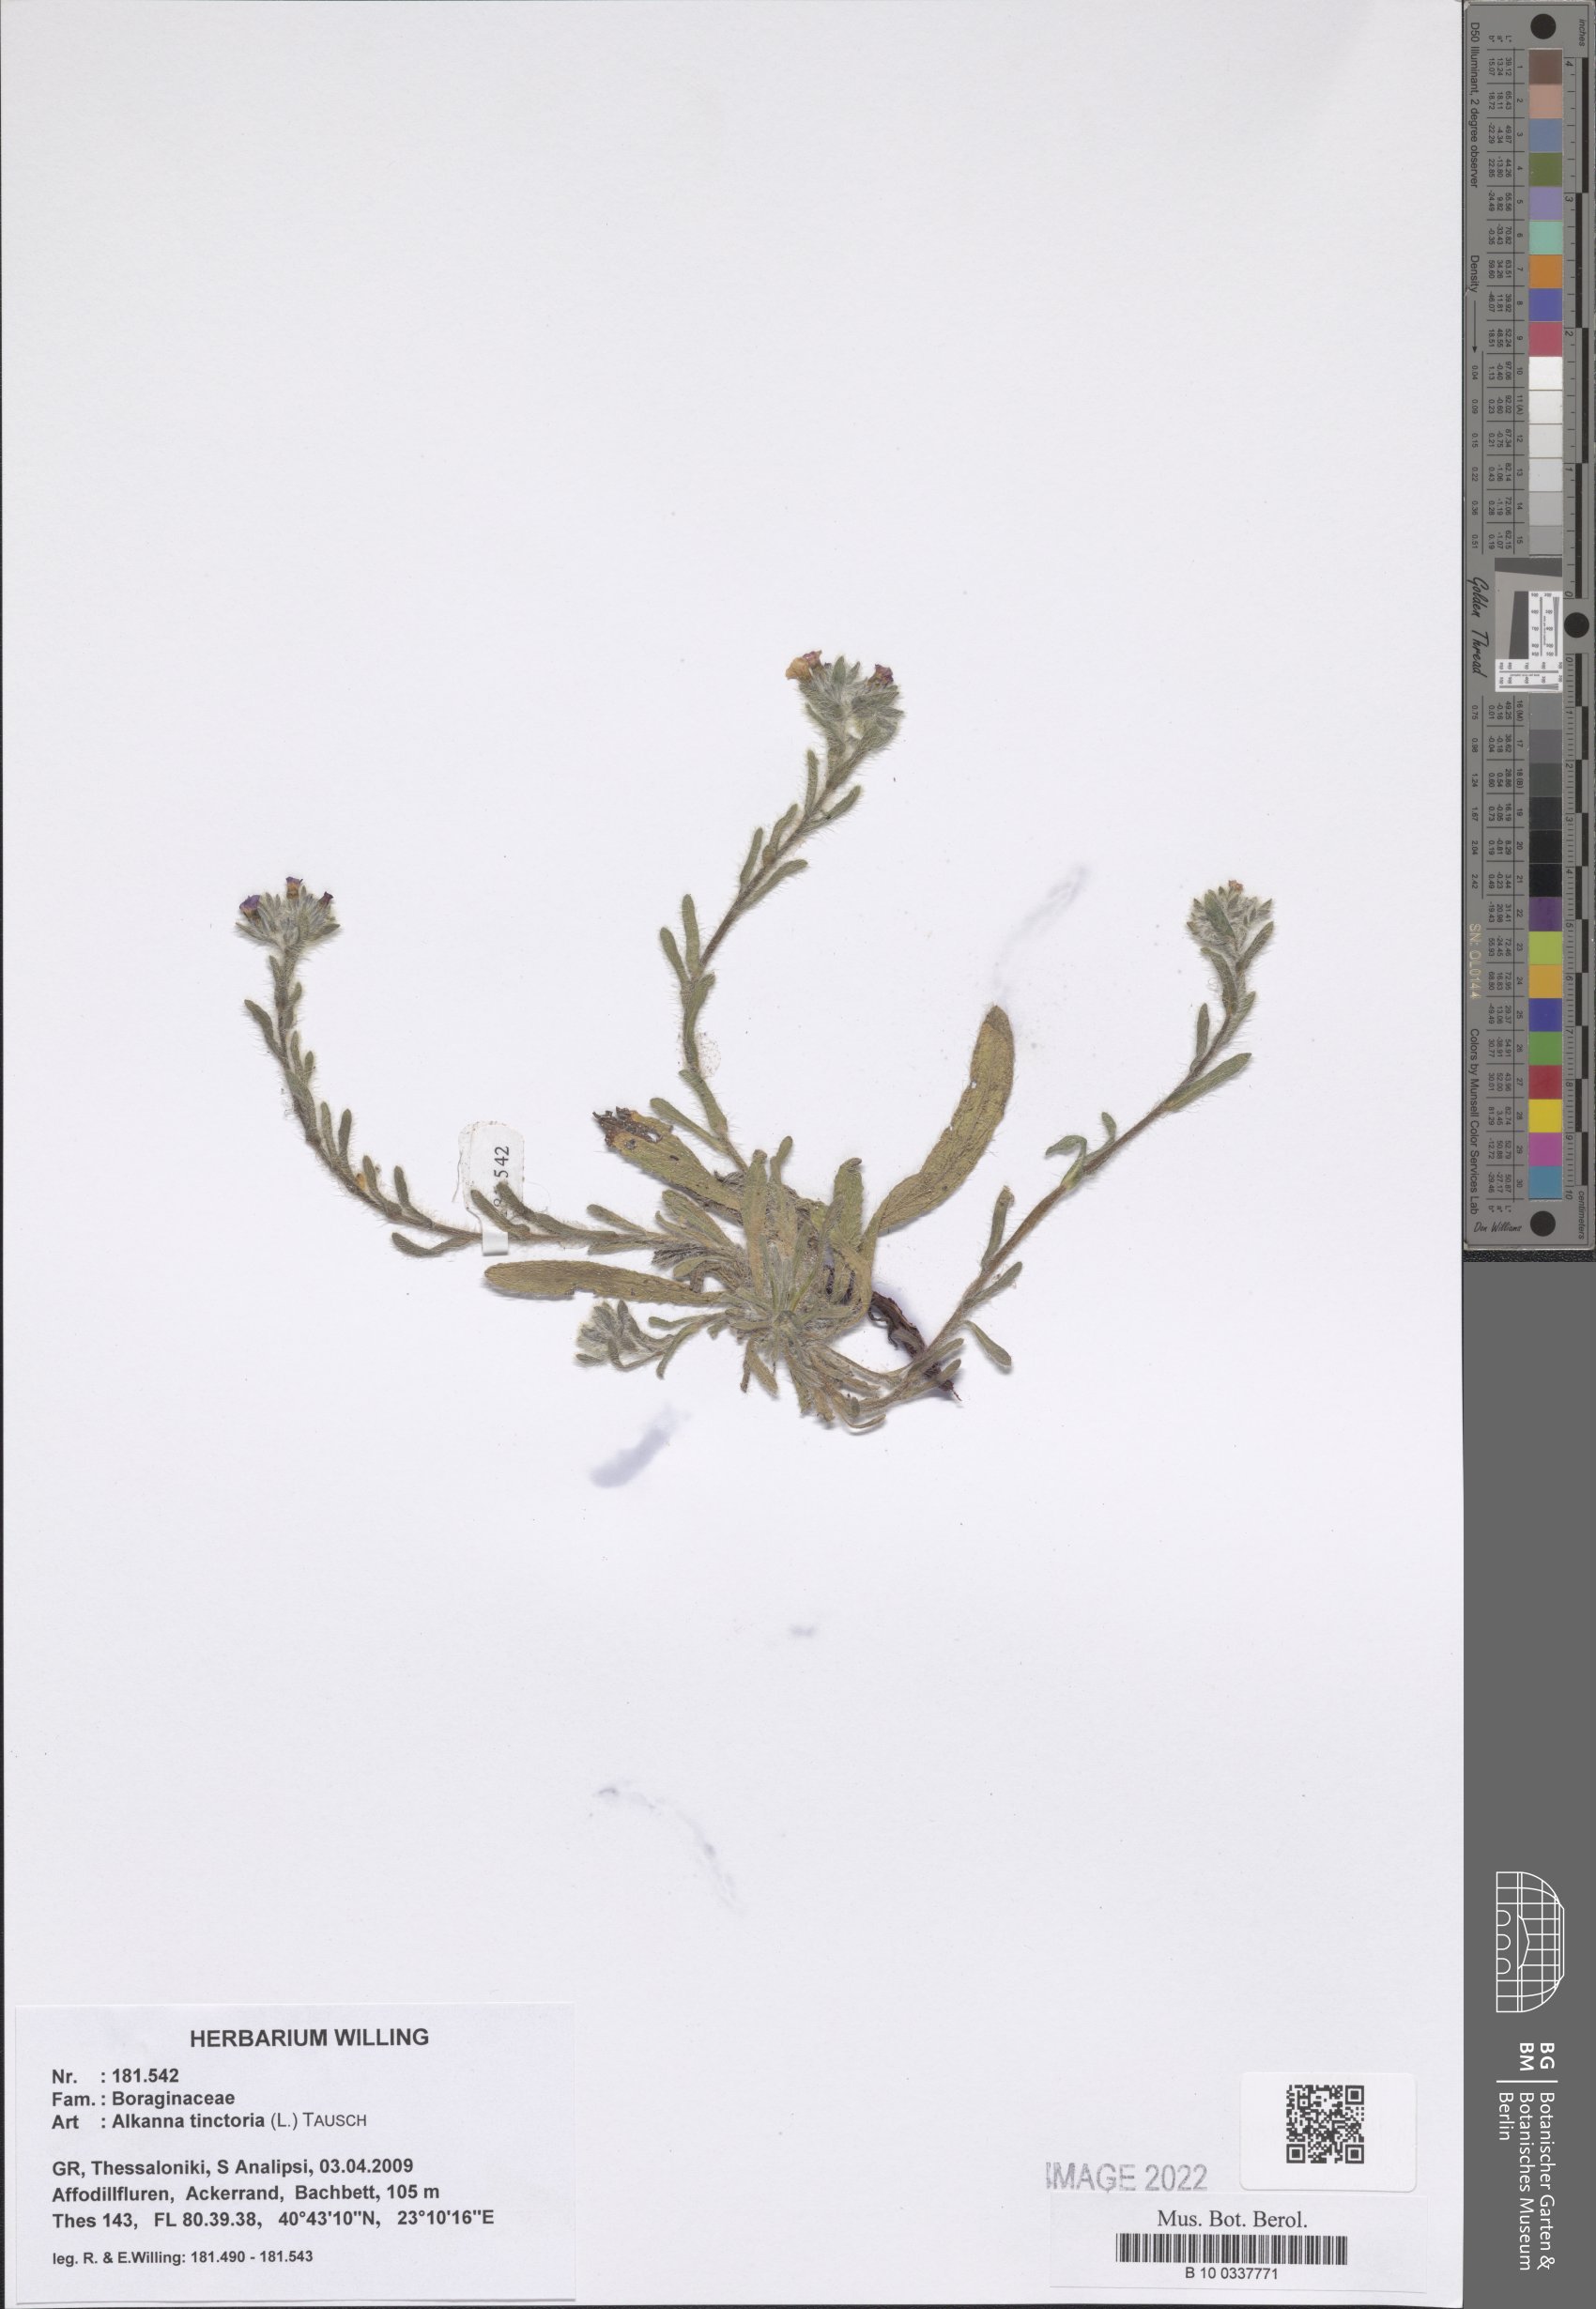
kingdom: Plantae
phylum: Tracheophyta
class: Magnoliopsida
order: Boraginales
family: Boraginaceae
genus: Alkanna
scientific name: Alkanna tinctoria
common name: Dyer's-alkanet
